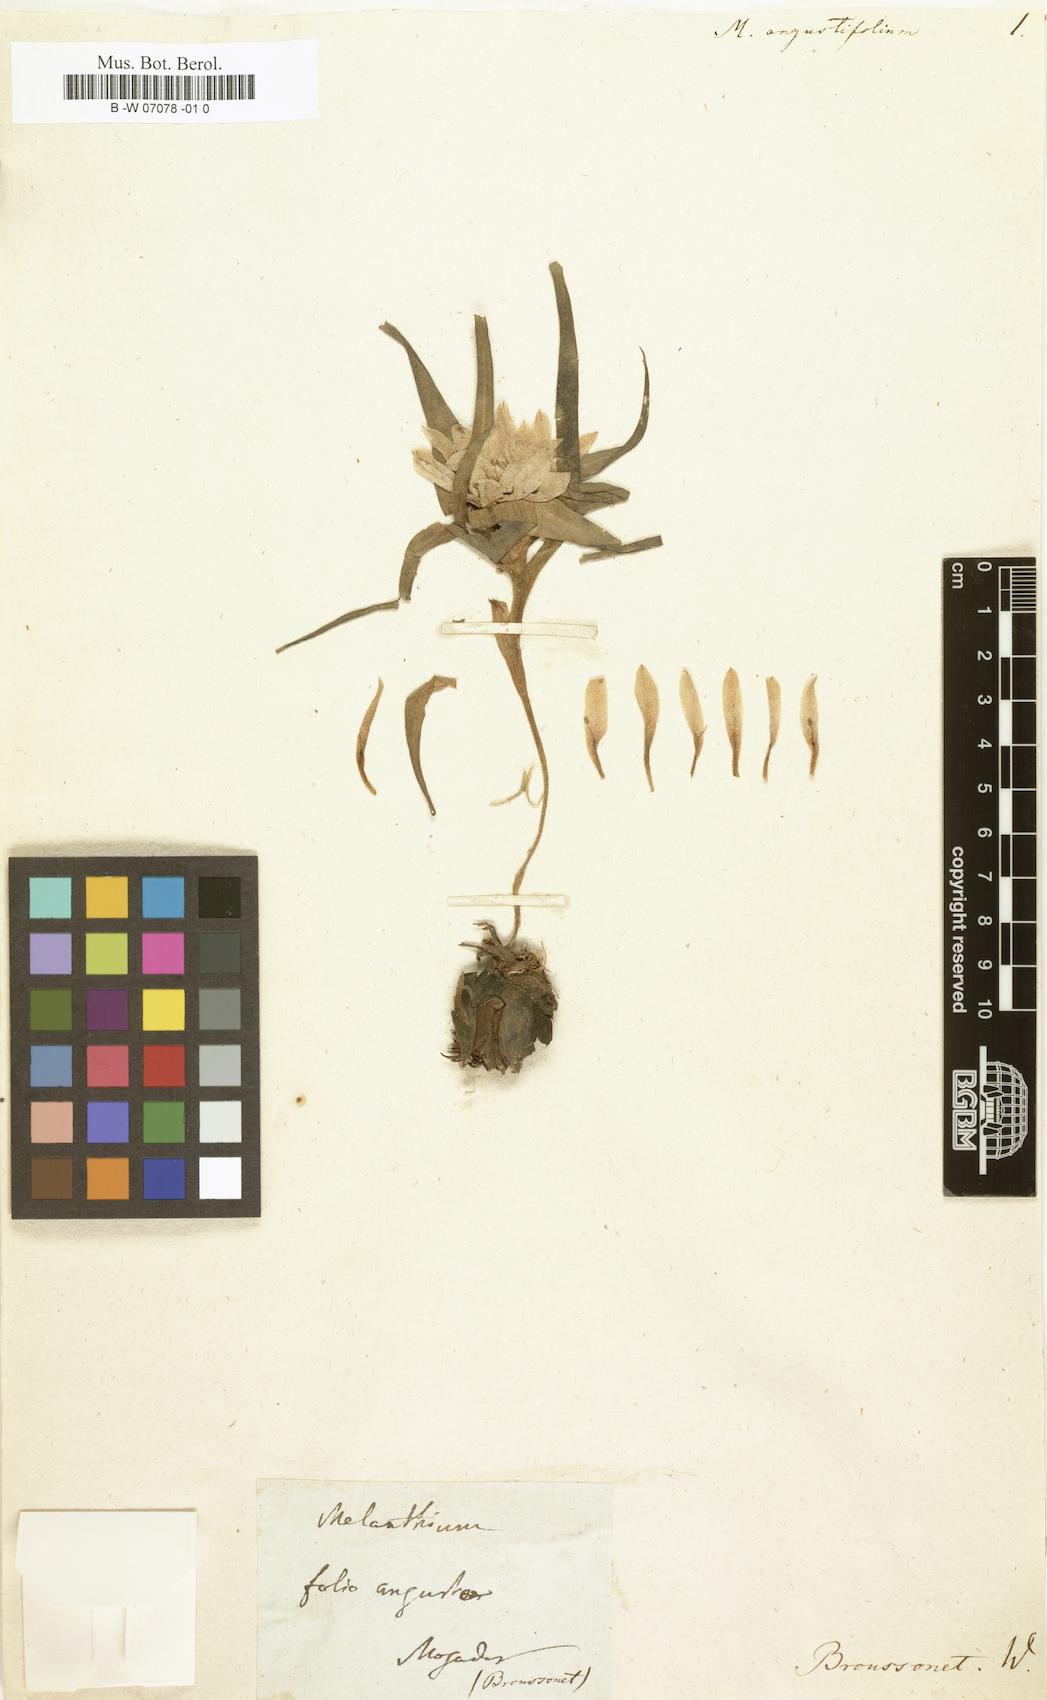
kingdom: Plantae
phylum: Tracheophyta
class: Liliopsida
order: Liliales
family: Colchicaceae
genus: Colchicum
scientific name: Colchicum gramineum
